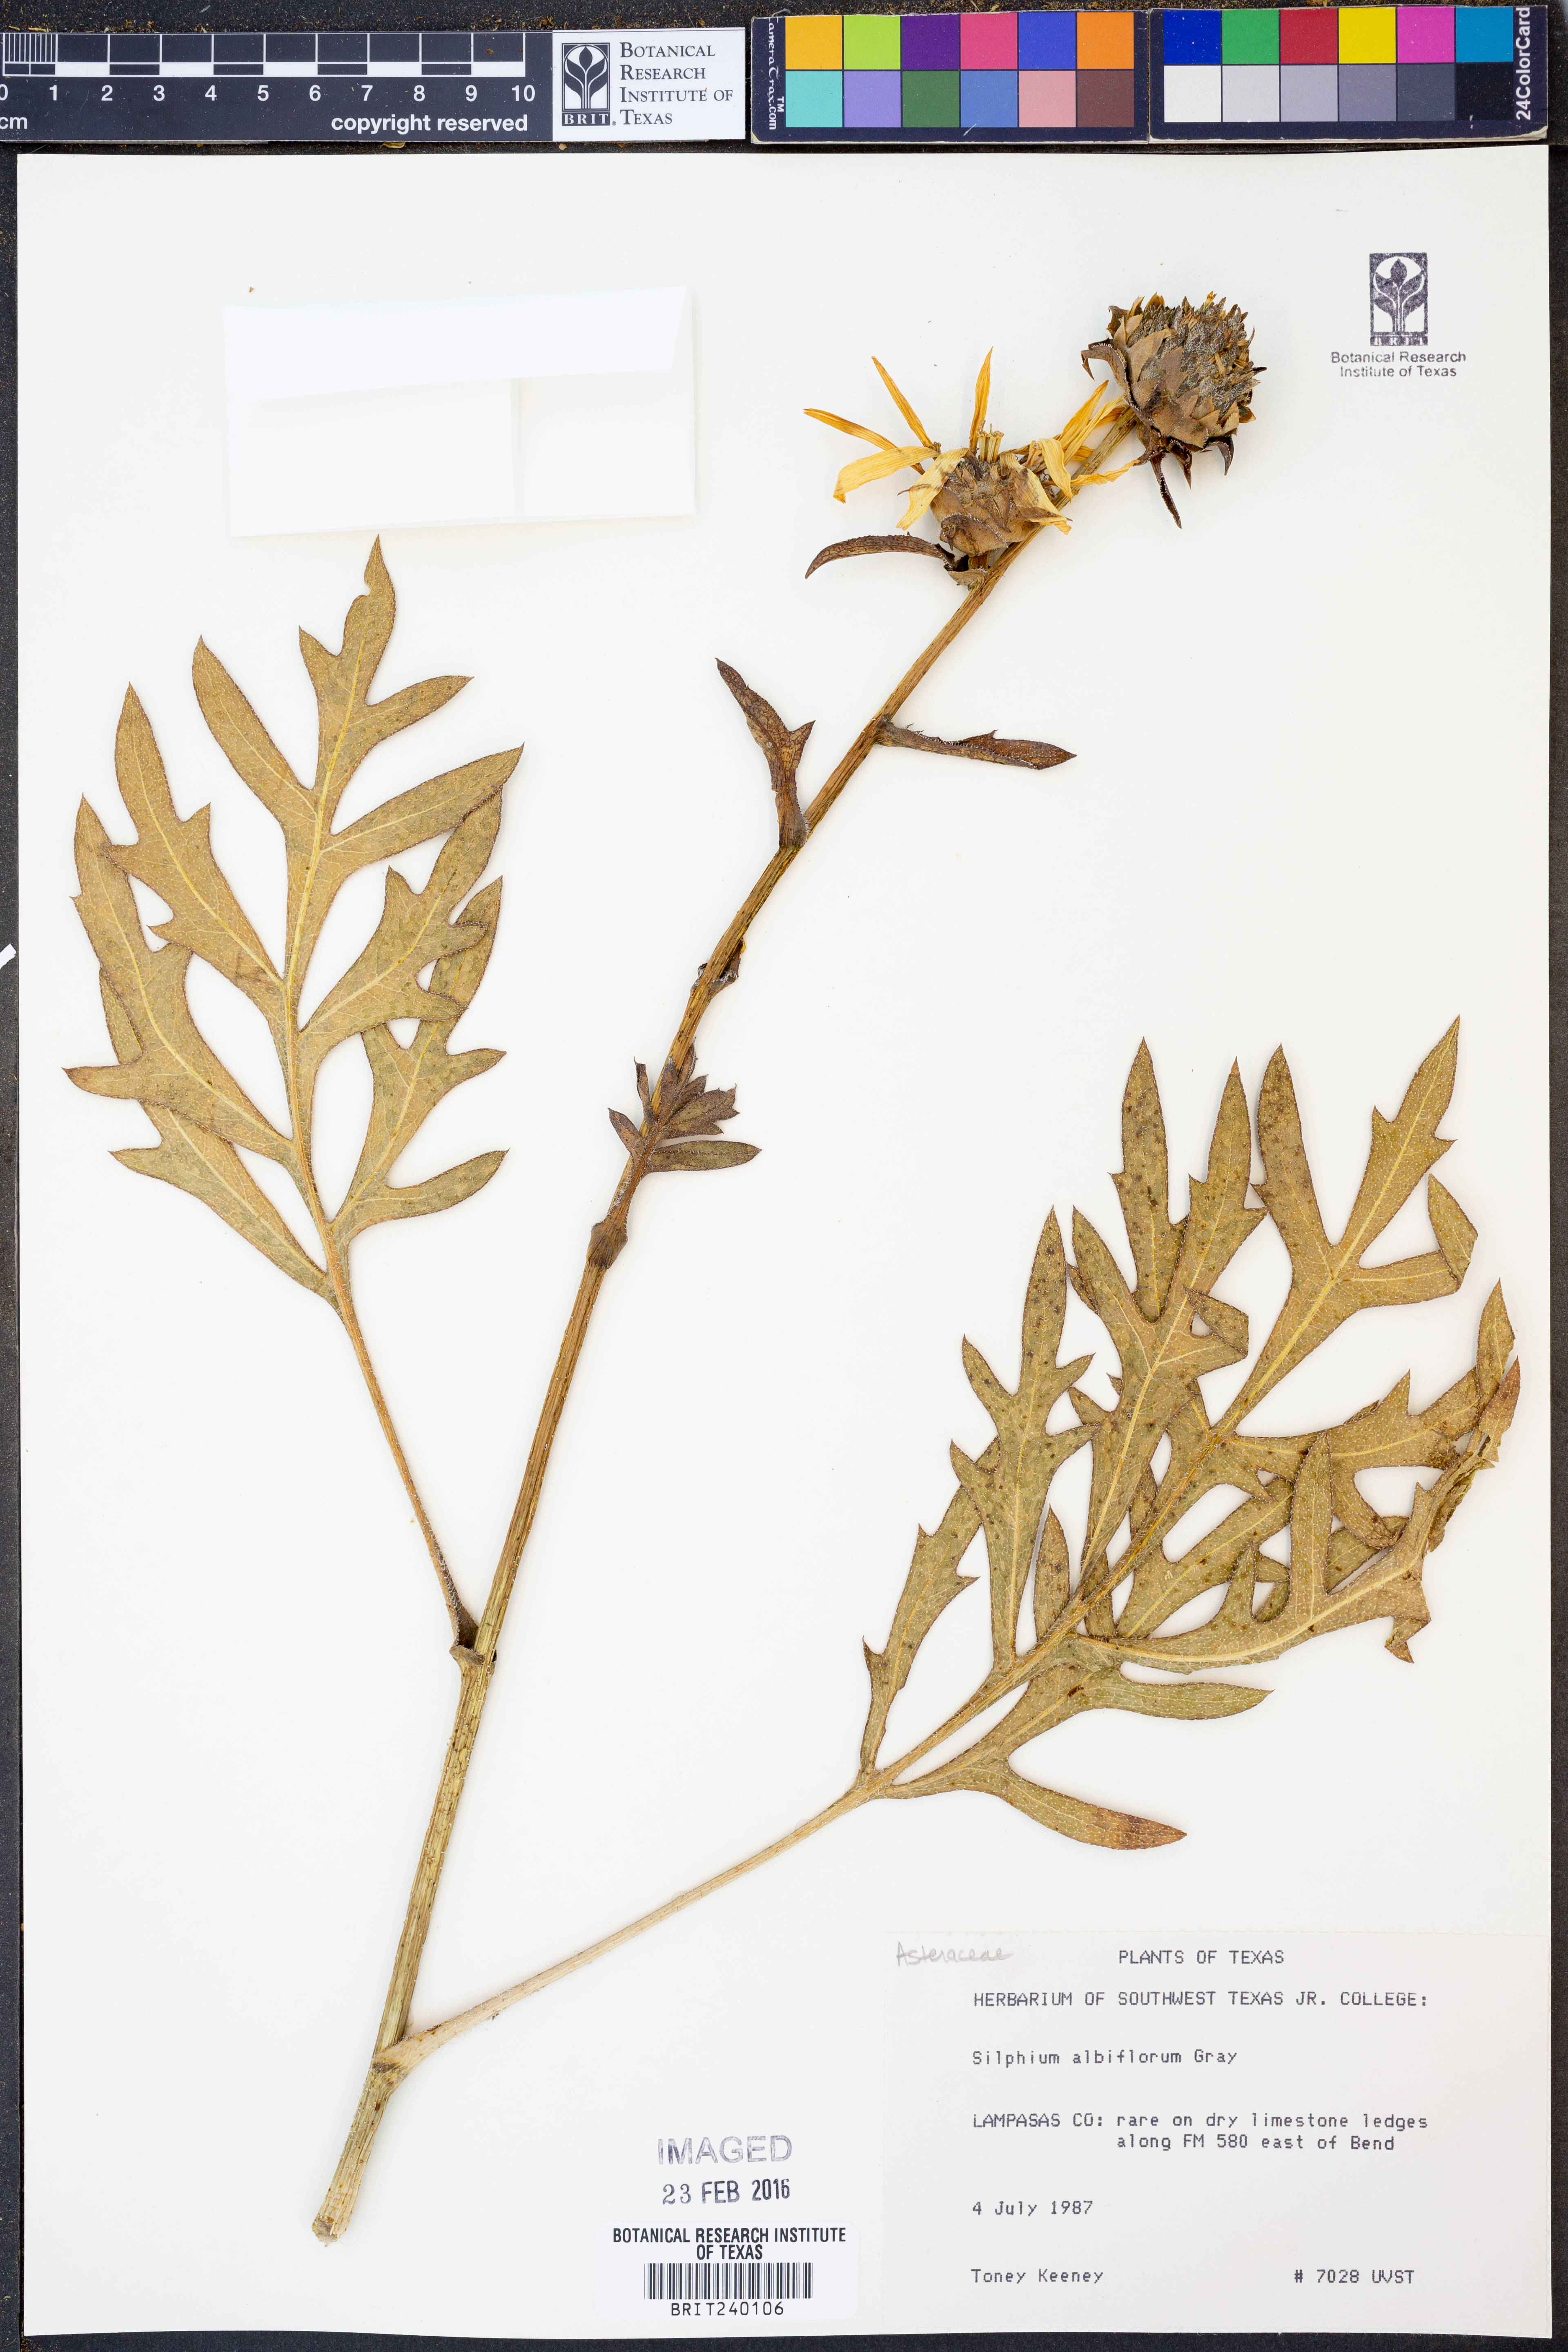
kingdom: Plantae
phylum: Tracheophyta
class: Magnoliopsida
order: Asterales
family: Asteraceae
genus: Silphium
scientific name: Silphium albiflorum
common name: White rosinweed
